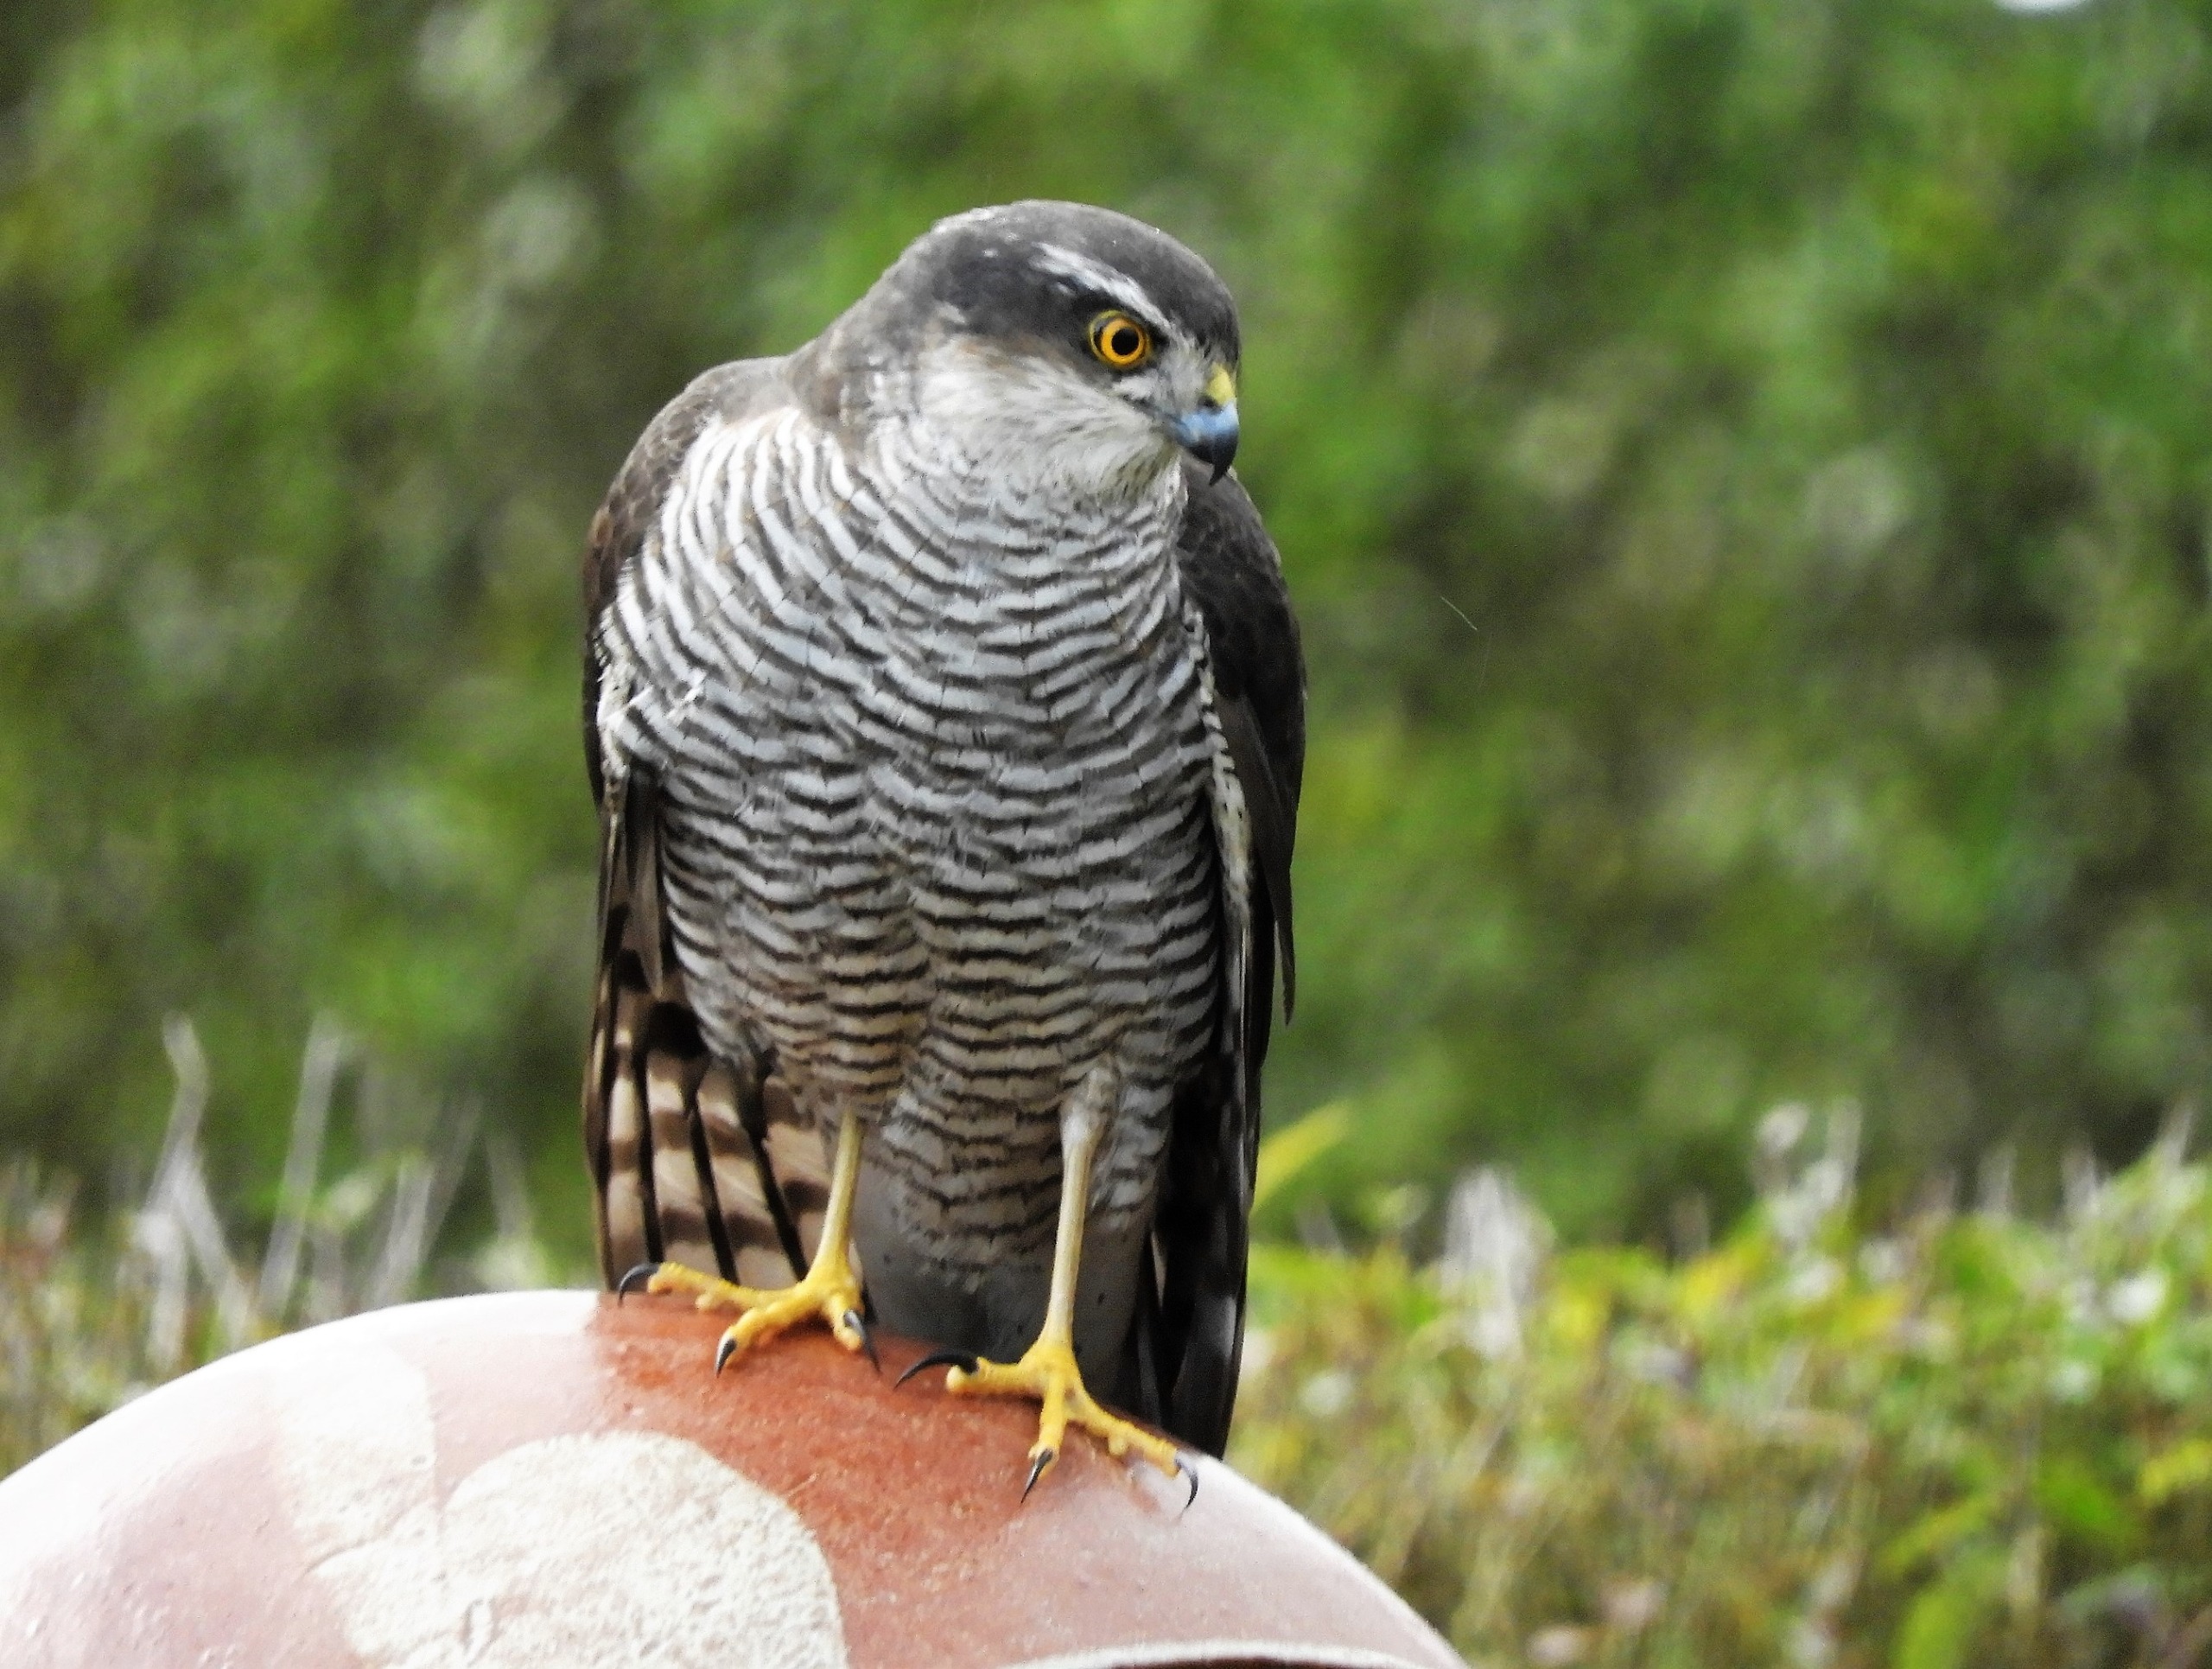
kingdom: Animalia
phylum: Chordata
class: Aves
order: Accipitriformes
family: Accipitridae
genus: Accipiter
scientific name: Accipiter nisus
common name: Spurvehøg
